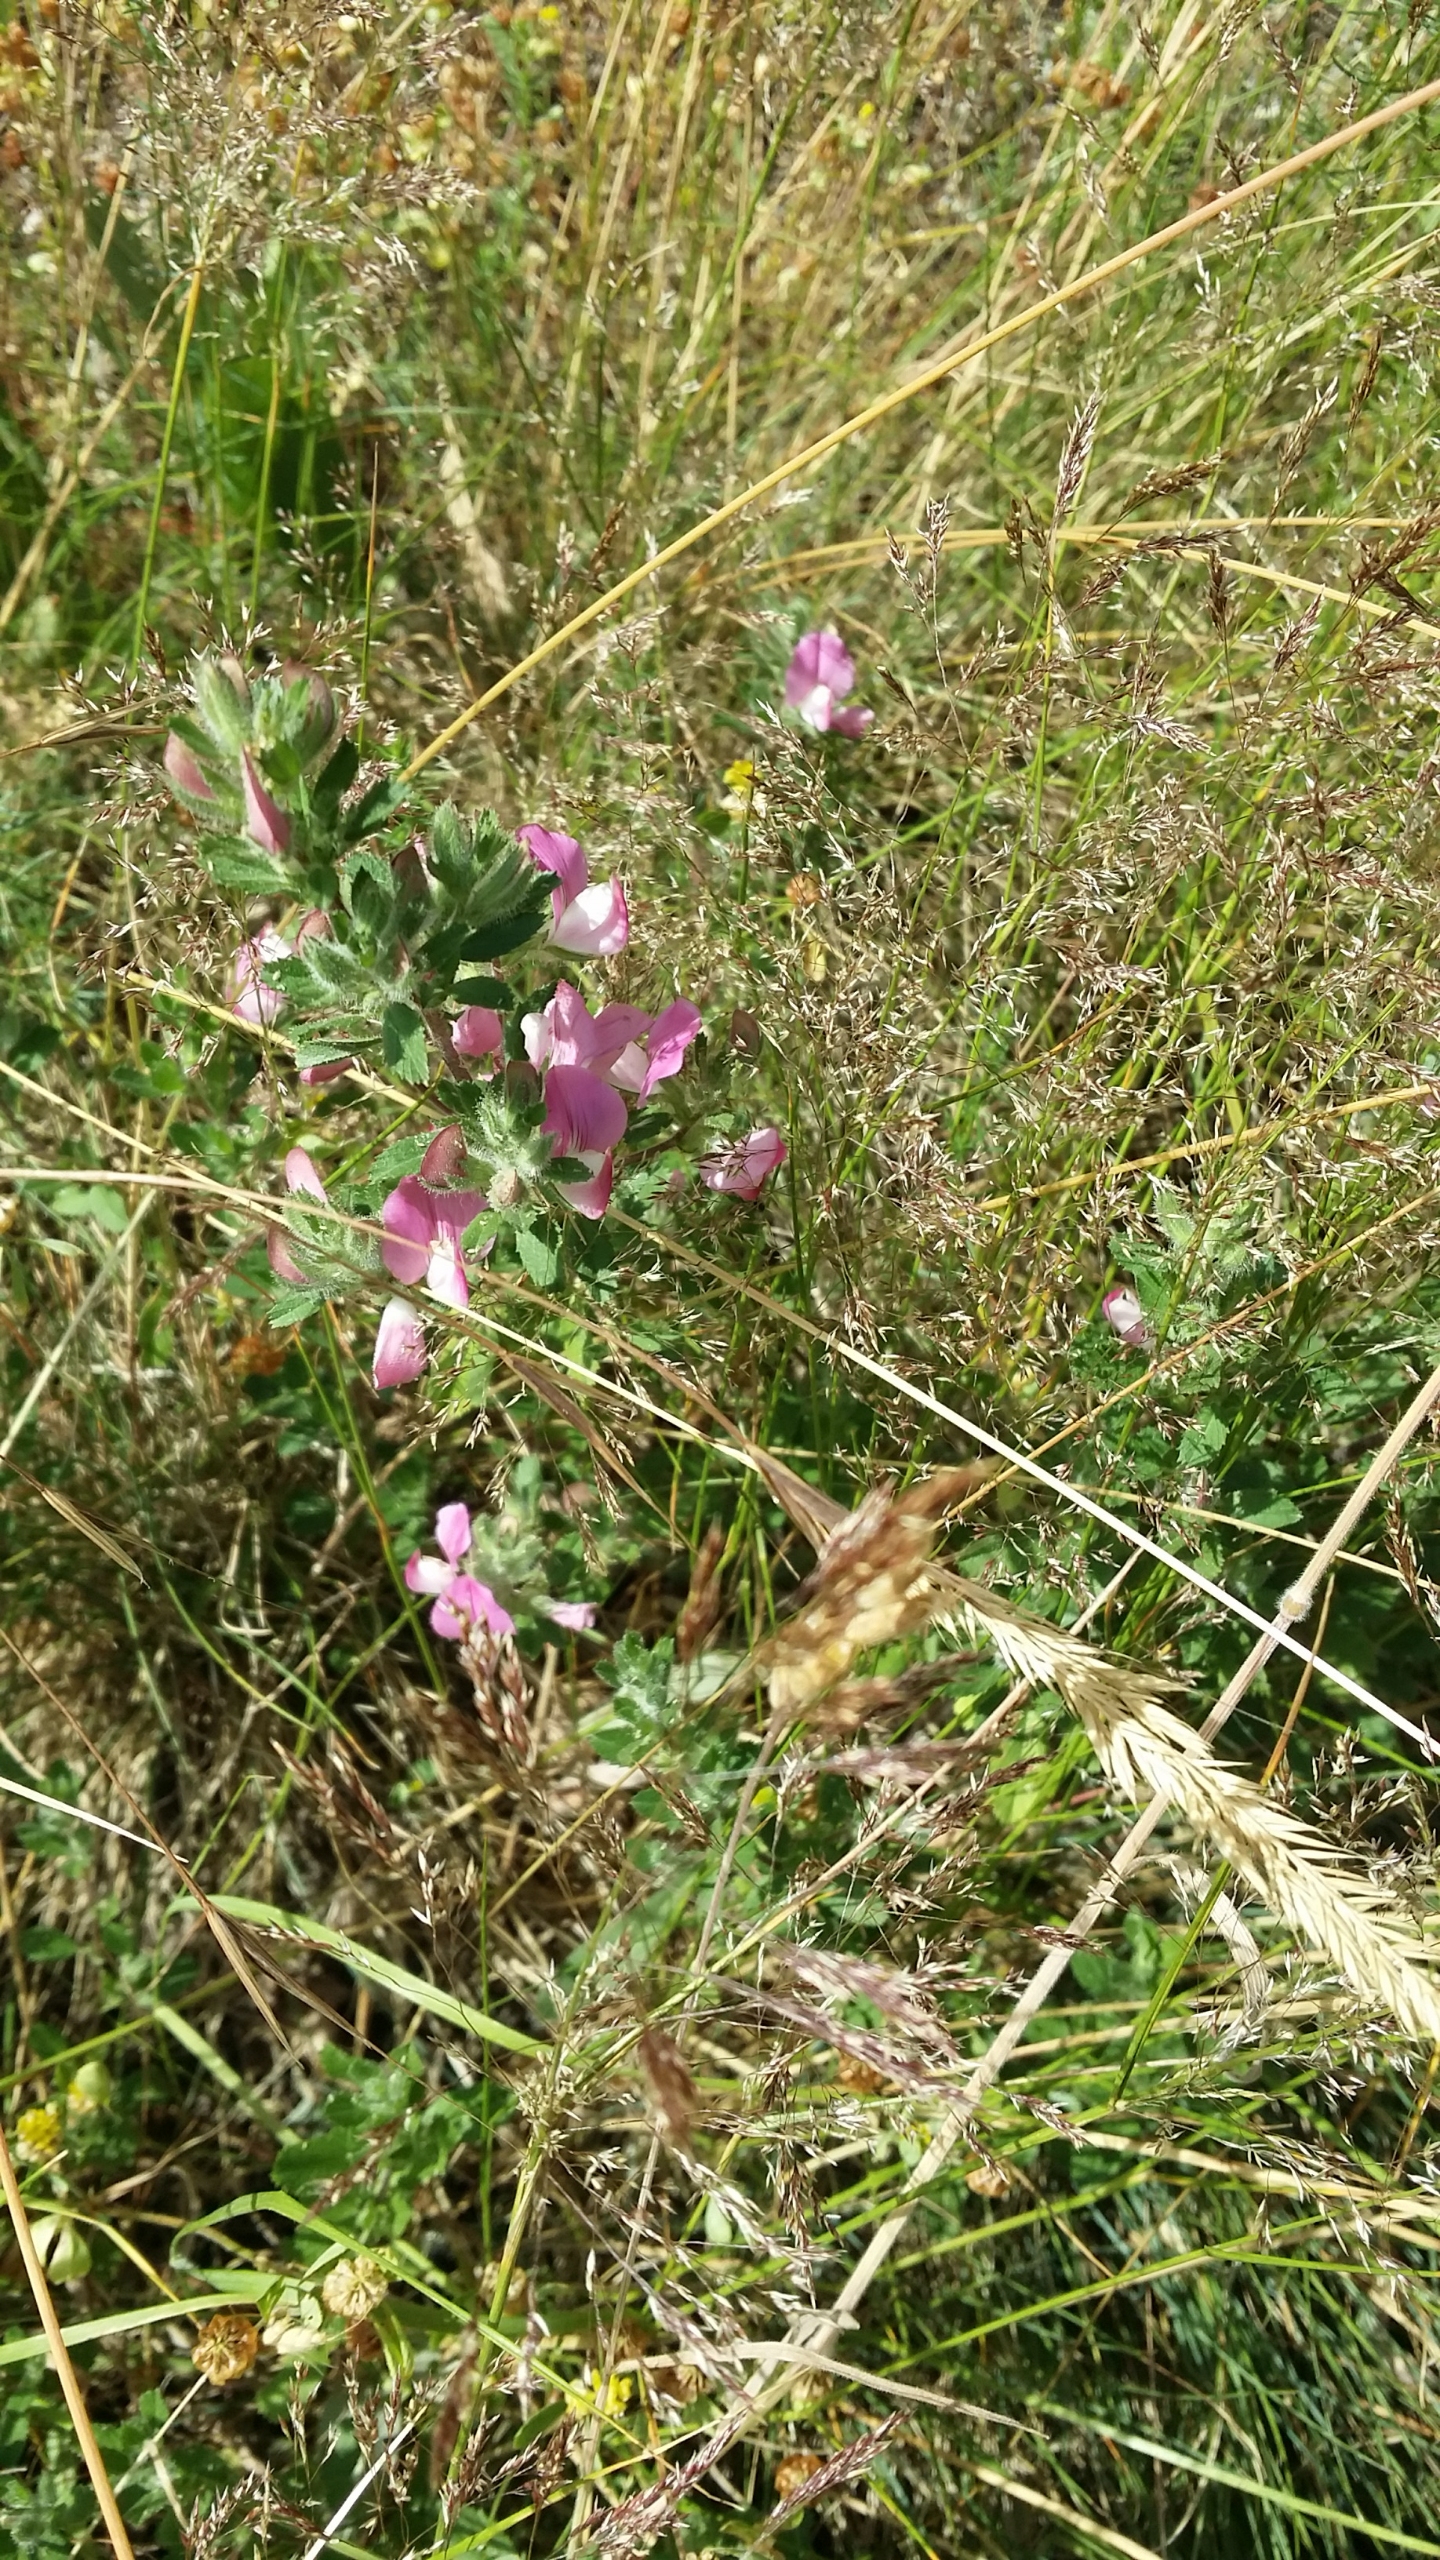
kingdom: Plantae
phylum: Tracheophyta
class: Magnoliopsida
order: Fabales
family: Fabaceae
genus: Ononis
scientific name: Ononis spinosa
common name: Mark-krageklo
